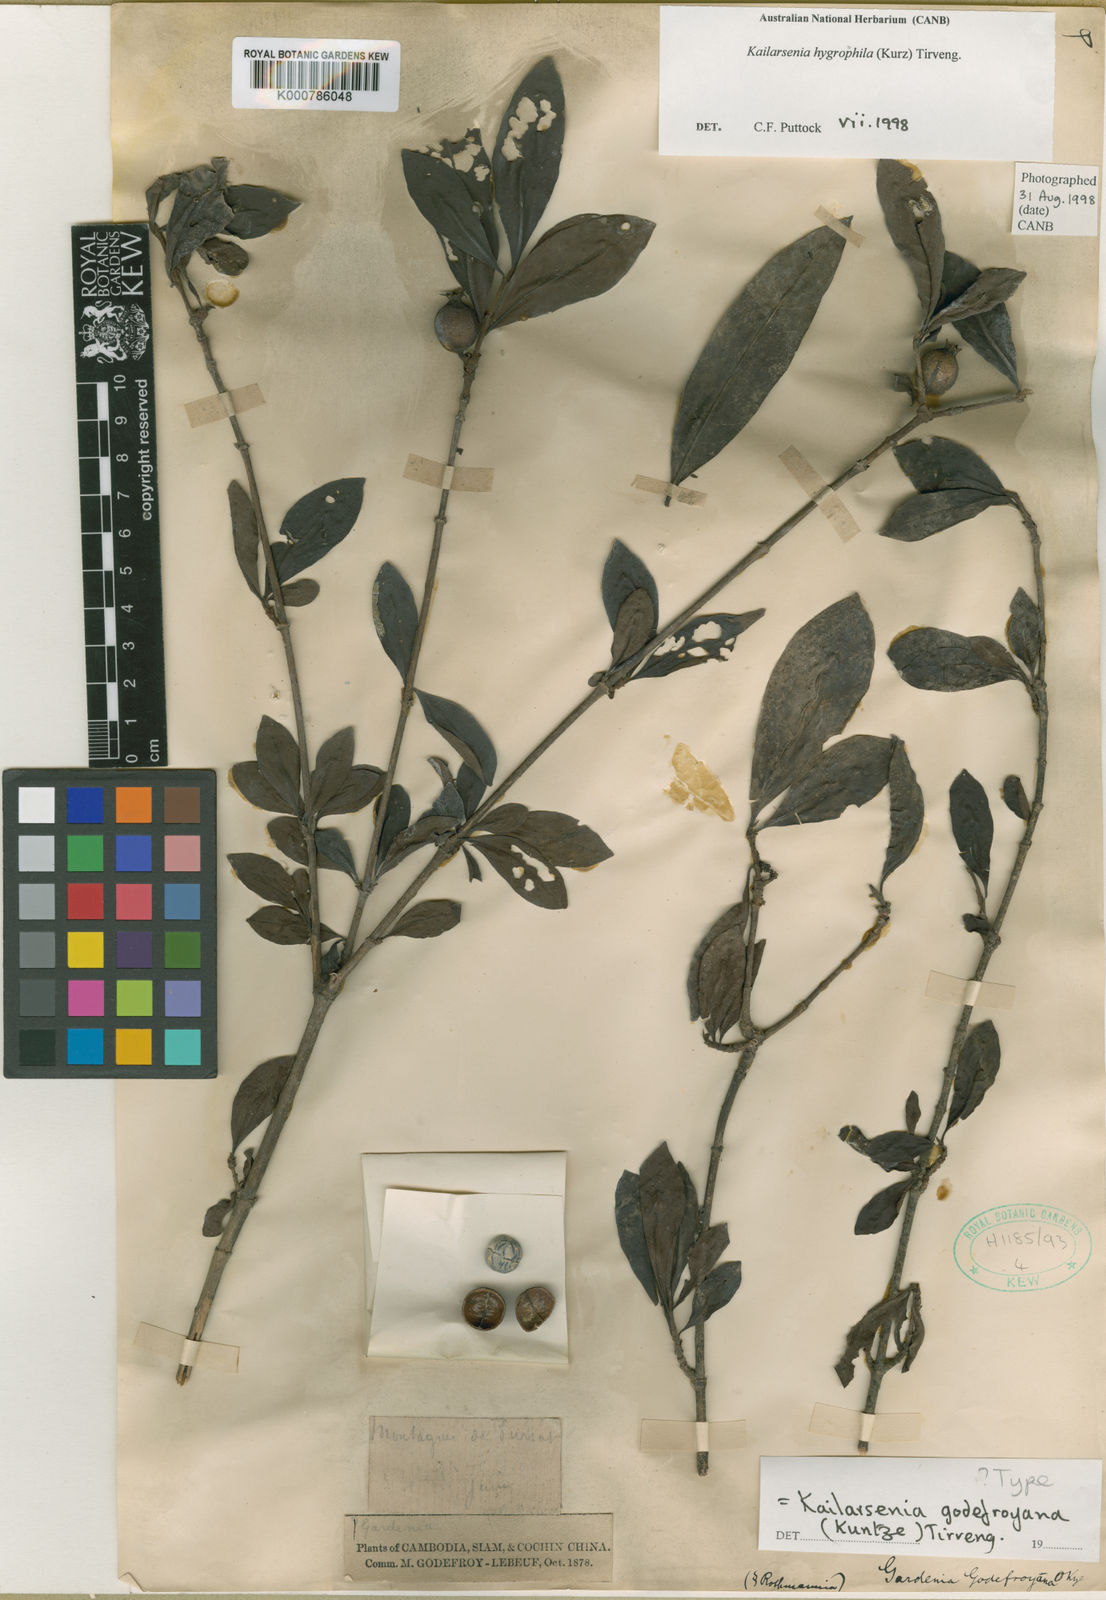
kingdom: Plantae
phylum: Tracheophyta
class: Magnoliopsida
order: Gentianales
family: Rubiaceae
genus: Kailarsenia
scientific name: Kailarsenia godefroyana
